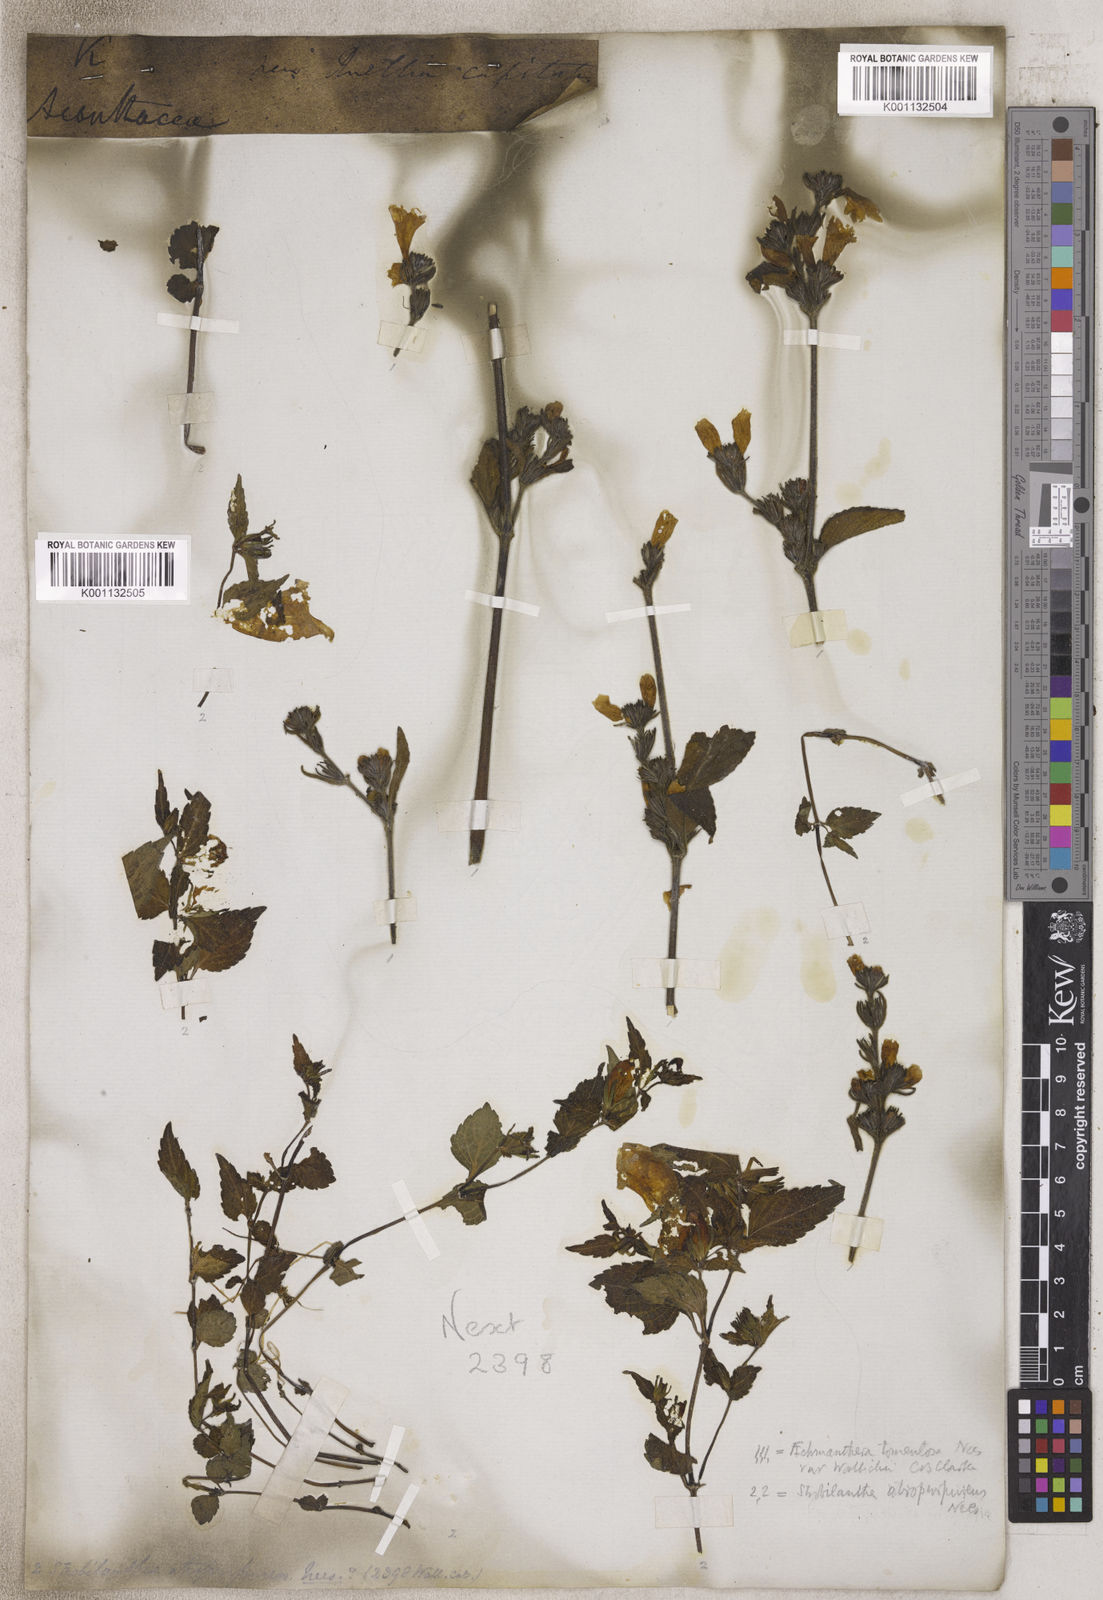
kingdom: Plantae
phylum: Tracheophyta
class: Magnoliopsida
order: Lamiales
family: Acanthaceae
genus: Strobilanthes
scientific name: Strobilanthes
